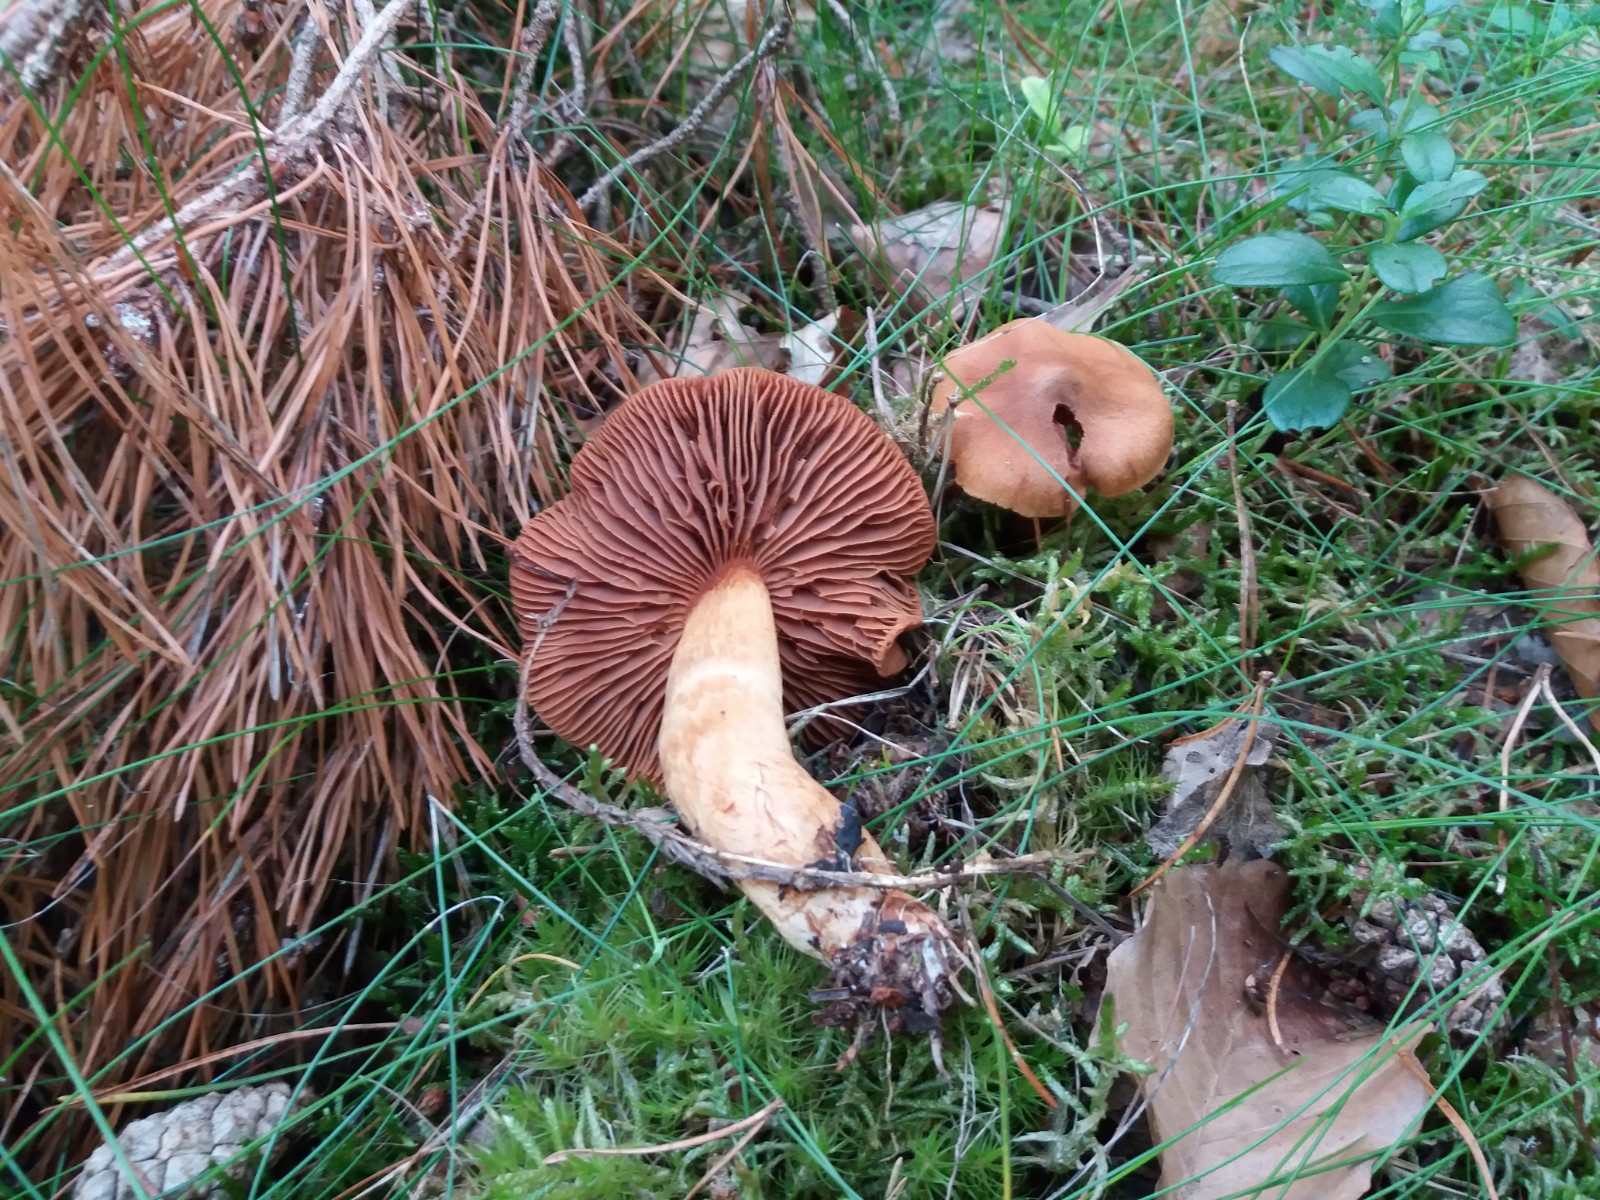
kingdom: Fungi
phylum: Basidiomycota
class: Agaricomycetes
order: Agaricales
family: Cortinariaceae
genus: Cortinarius
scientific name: Cortinarius rubellus
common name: puklet gift-slørhat
